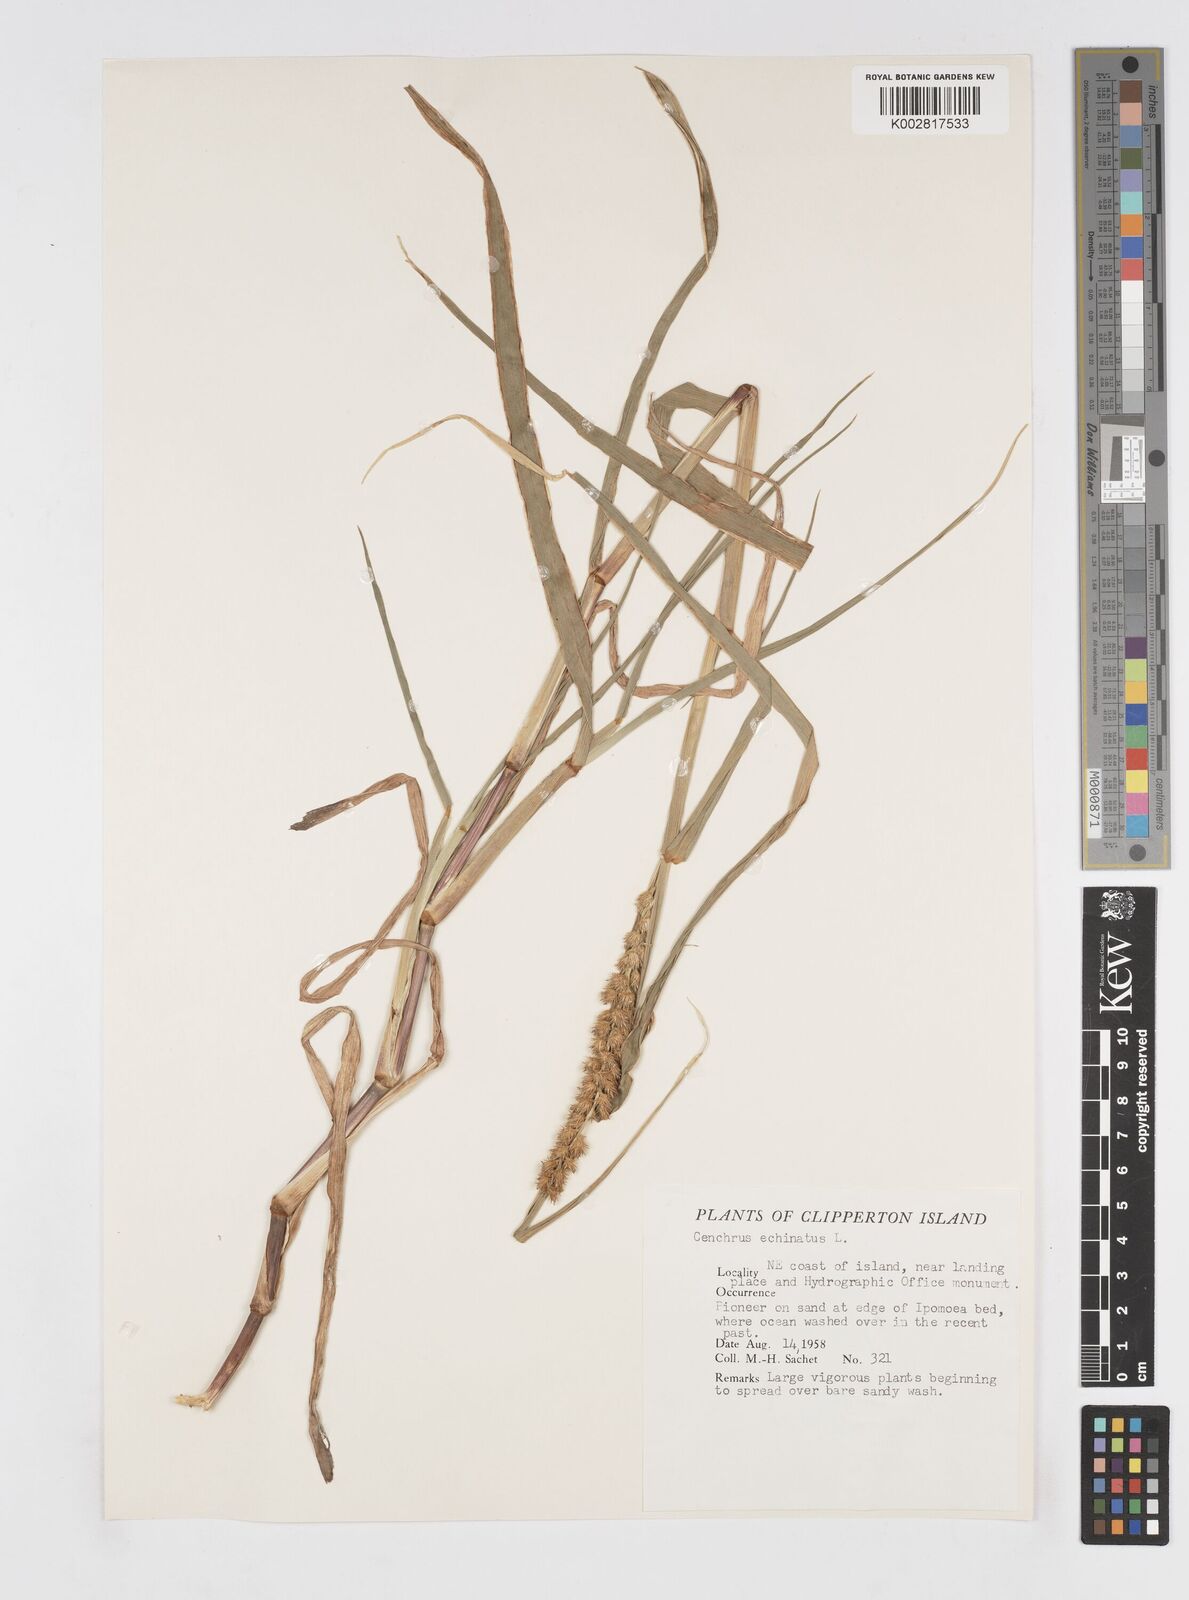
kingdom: Plantae
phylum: Tracheophyta
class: Liliopsida
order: Poales
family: Poaceae
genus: Cenchrus
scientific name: Cenchrus
